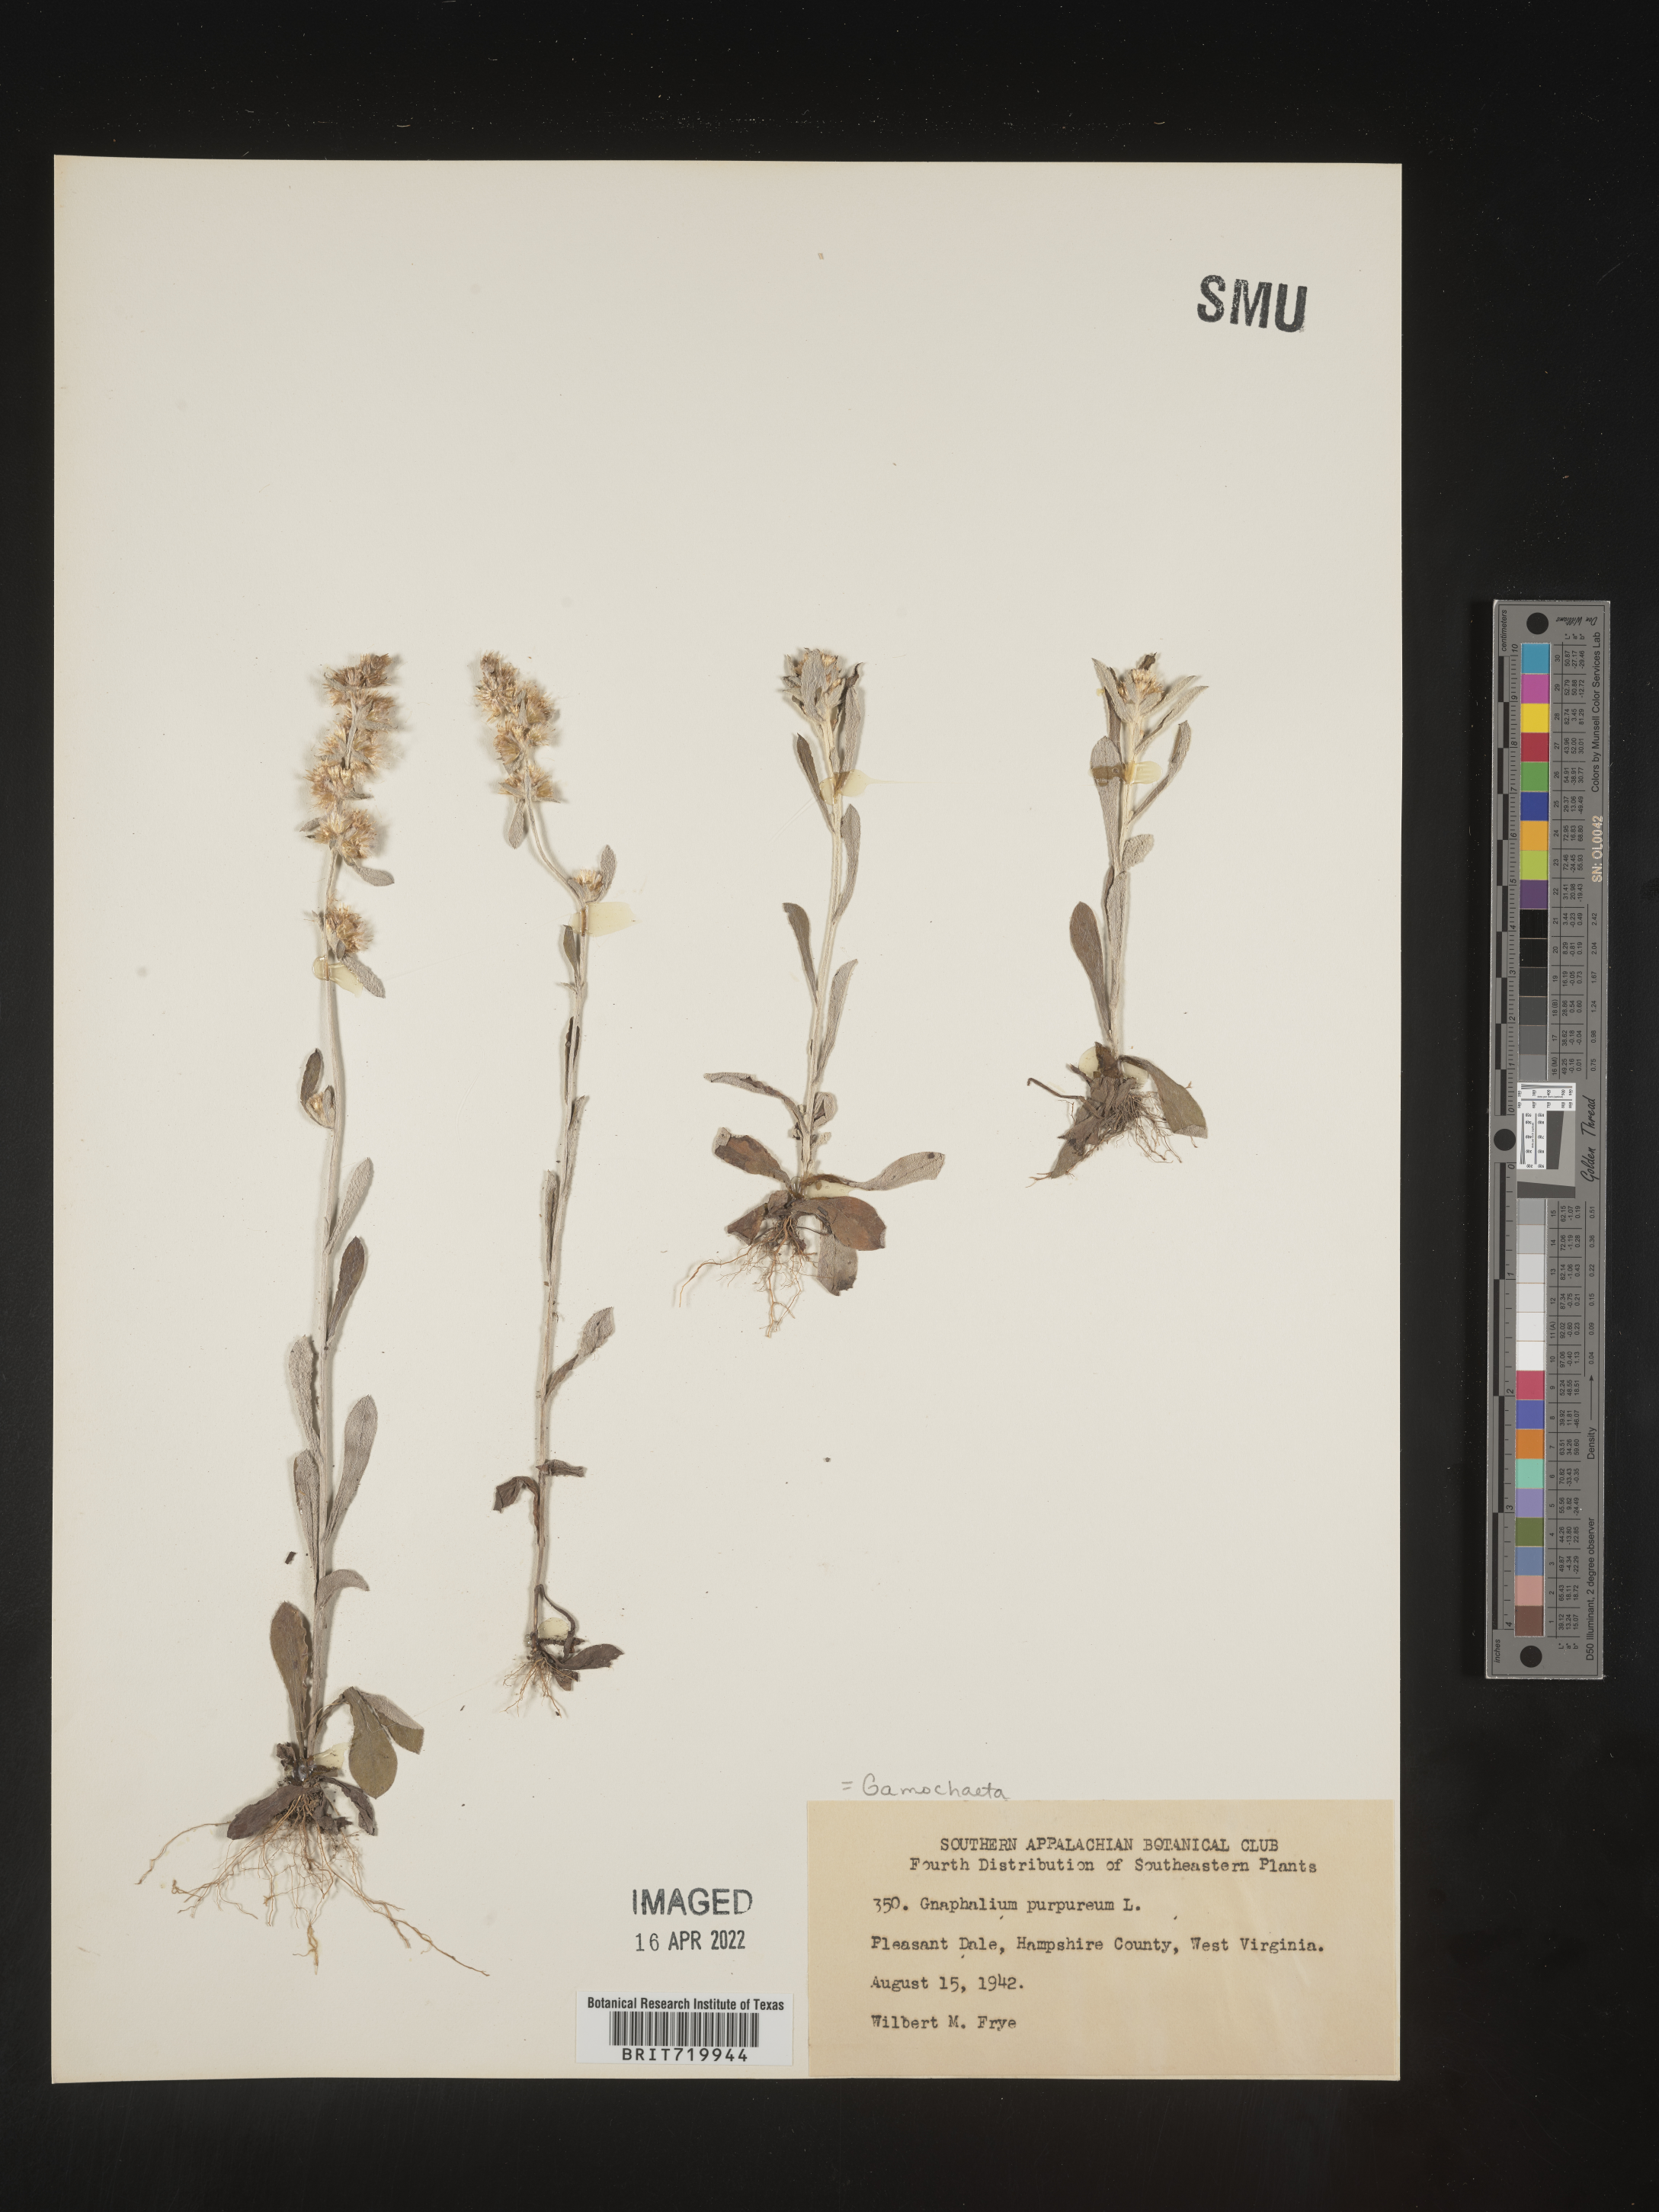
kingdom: Plantae
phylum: Tracheophyta
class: Magnoliopsida
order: Asterales
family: Asteraceae
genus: Gamochaeta
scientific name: Gamochaeta purpurea
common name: Purple cudweed
